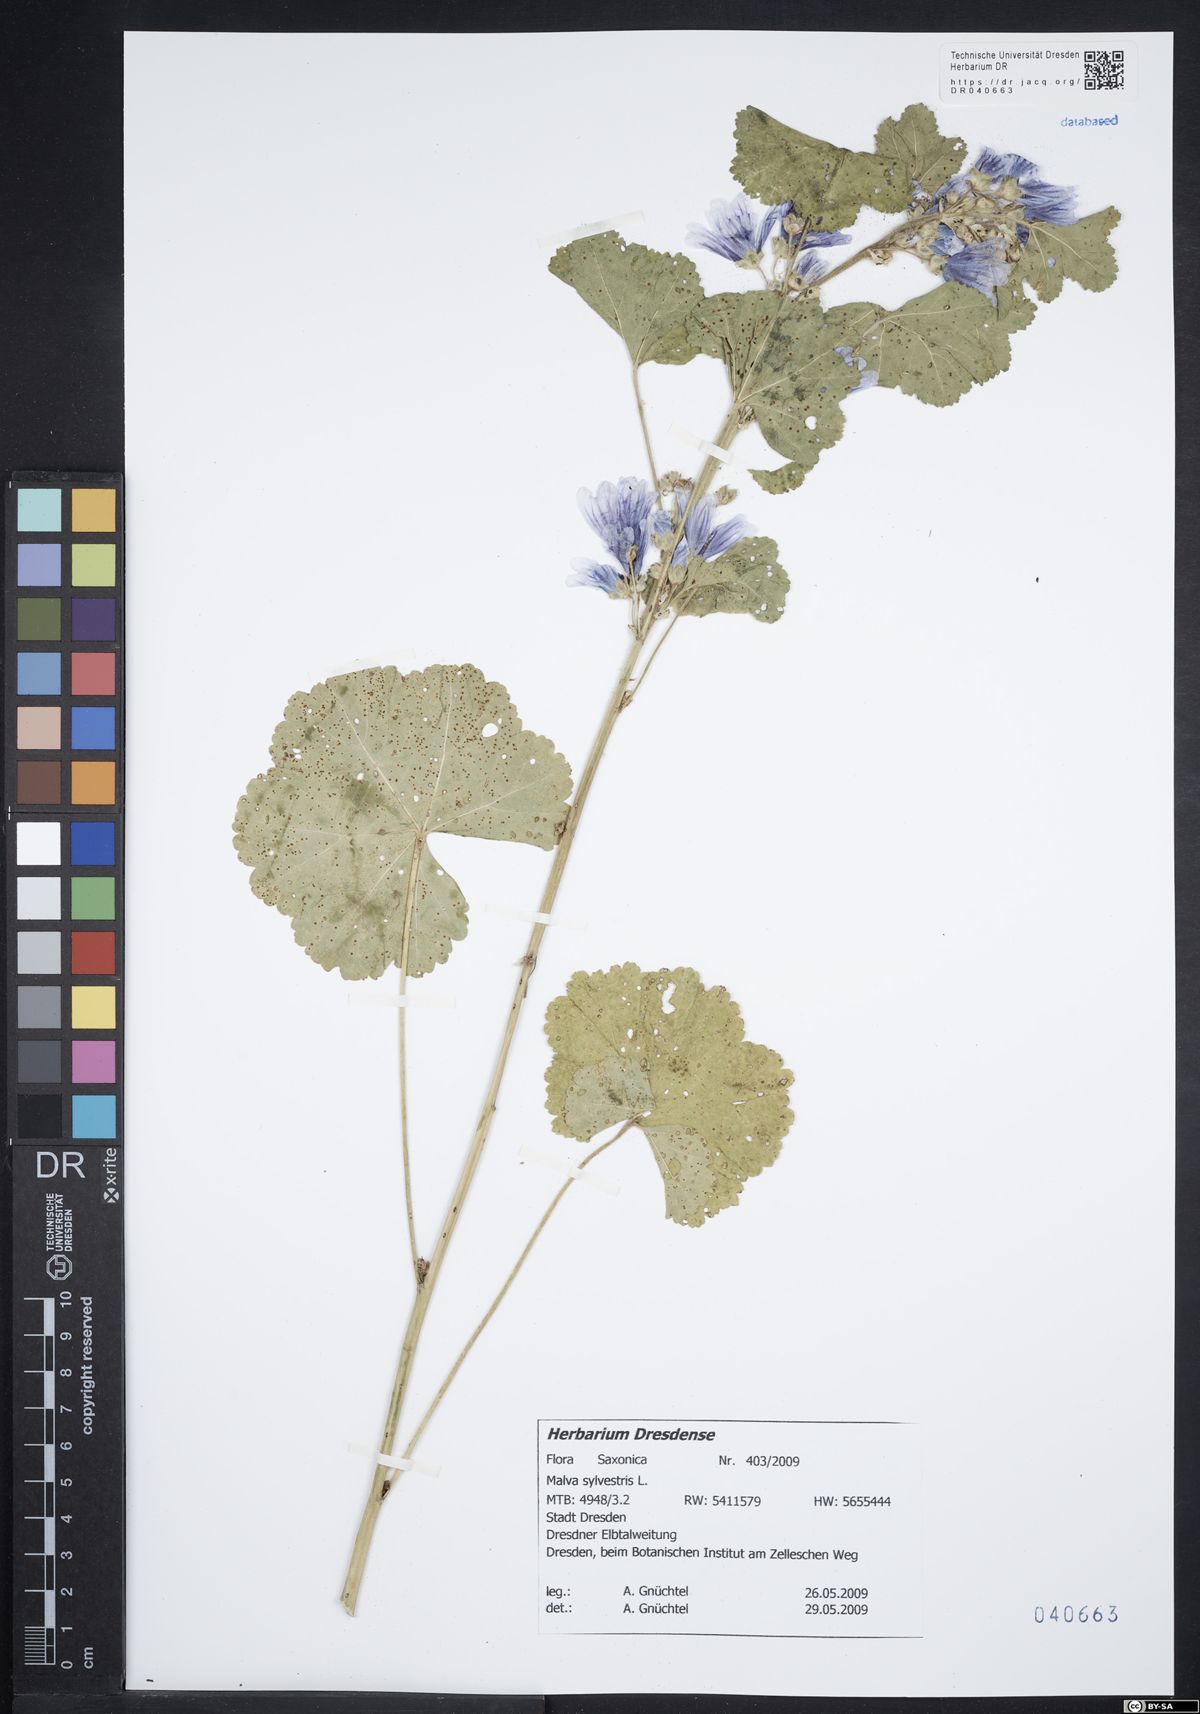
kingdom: Plantae
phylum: Tracheophyta
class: Magnoliopsida
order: Malvales
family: Malvaceae
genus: Malva
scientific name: Malva sylvestris
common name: Common mallow
